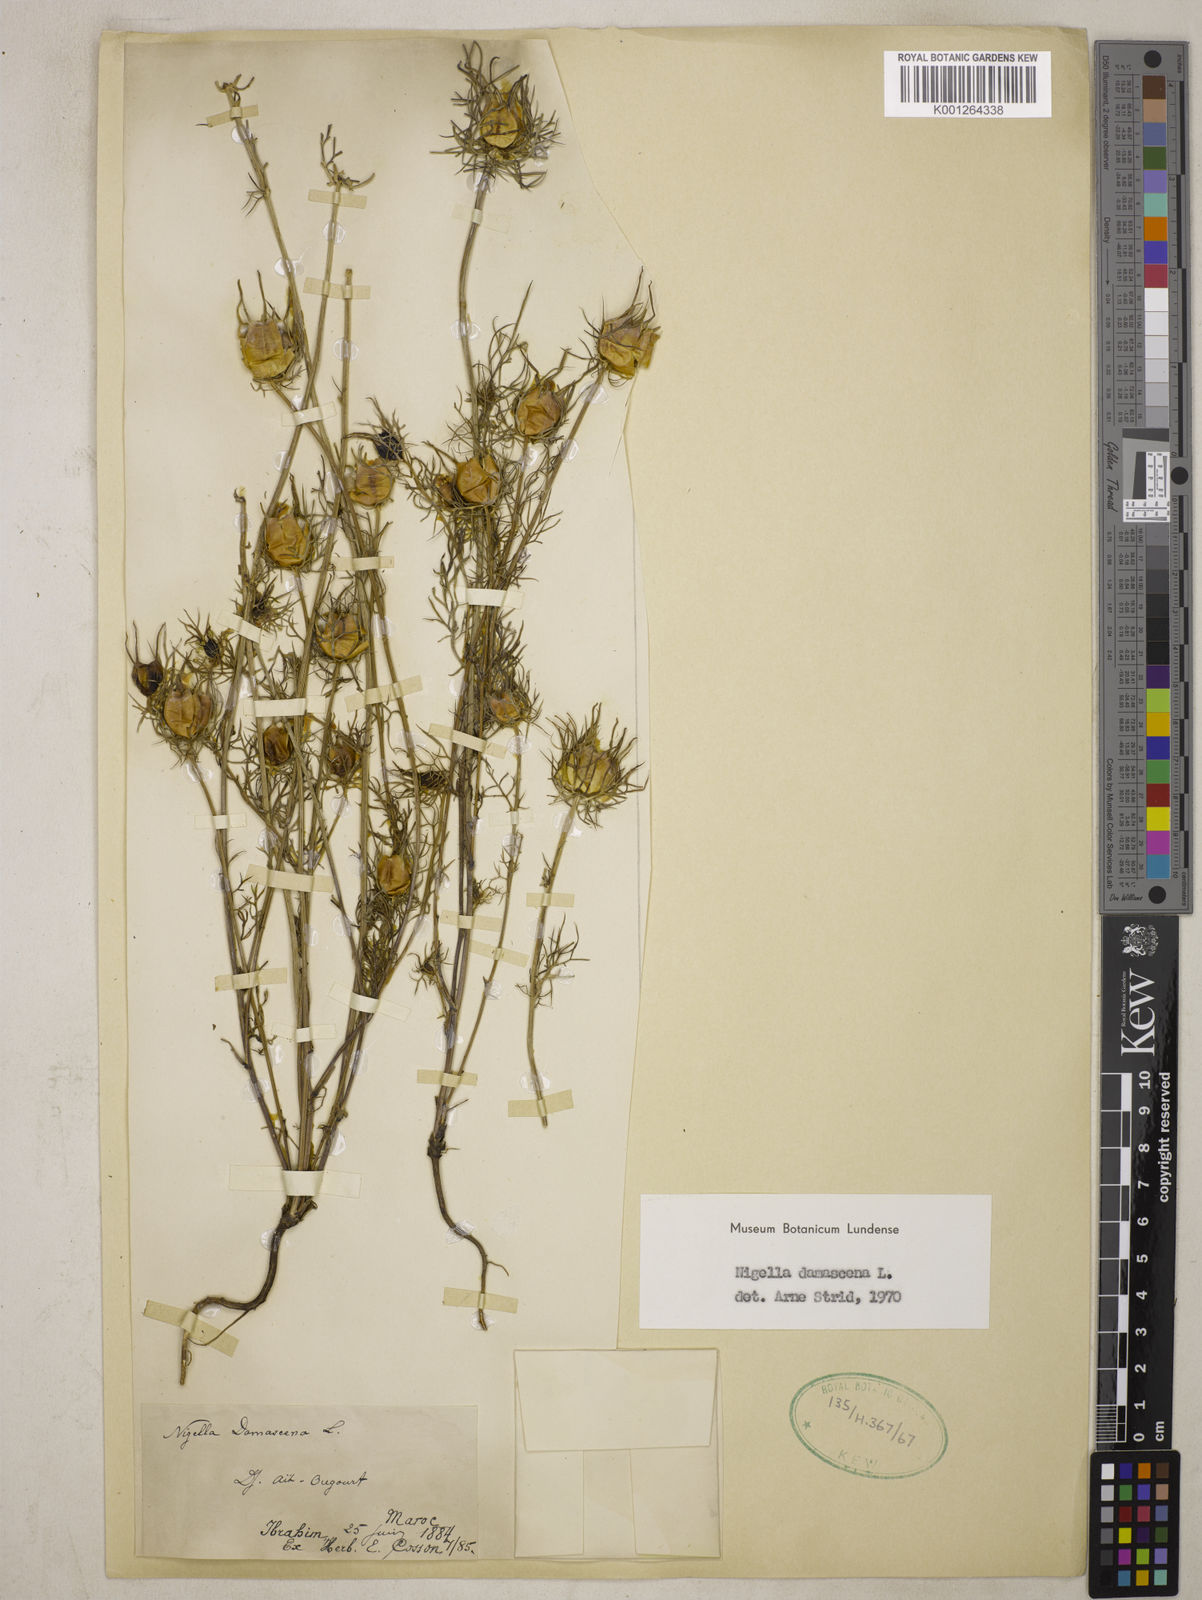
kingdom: Plantae
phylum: Tracheophyta
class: Magnoliopsida
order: Ranunculales
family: Ranunculaceae
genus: Nigella
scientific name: Nigella damascena
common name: Love-in-a-mist
